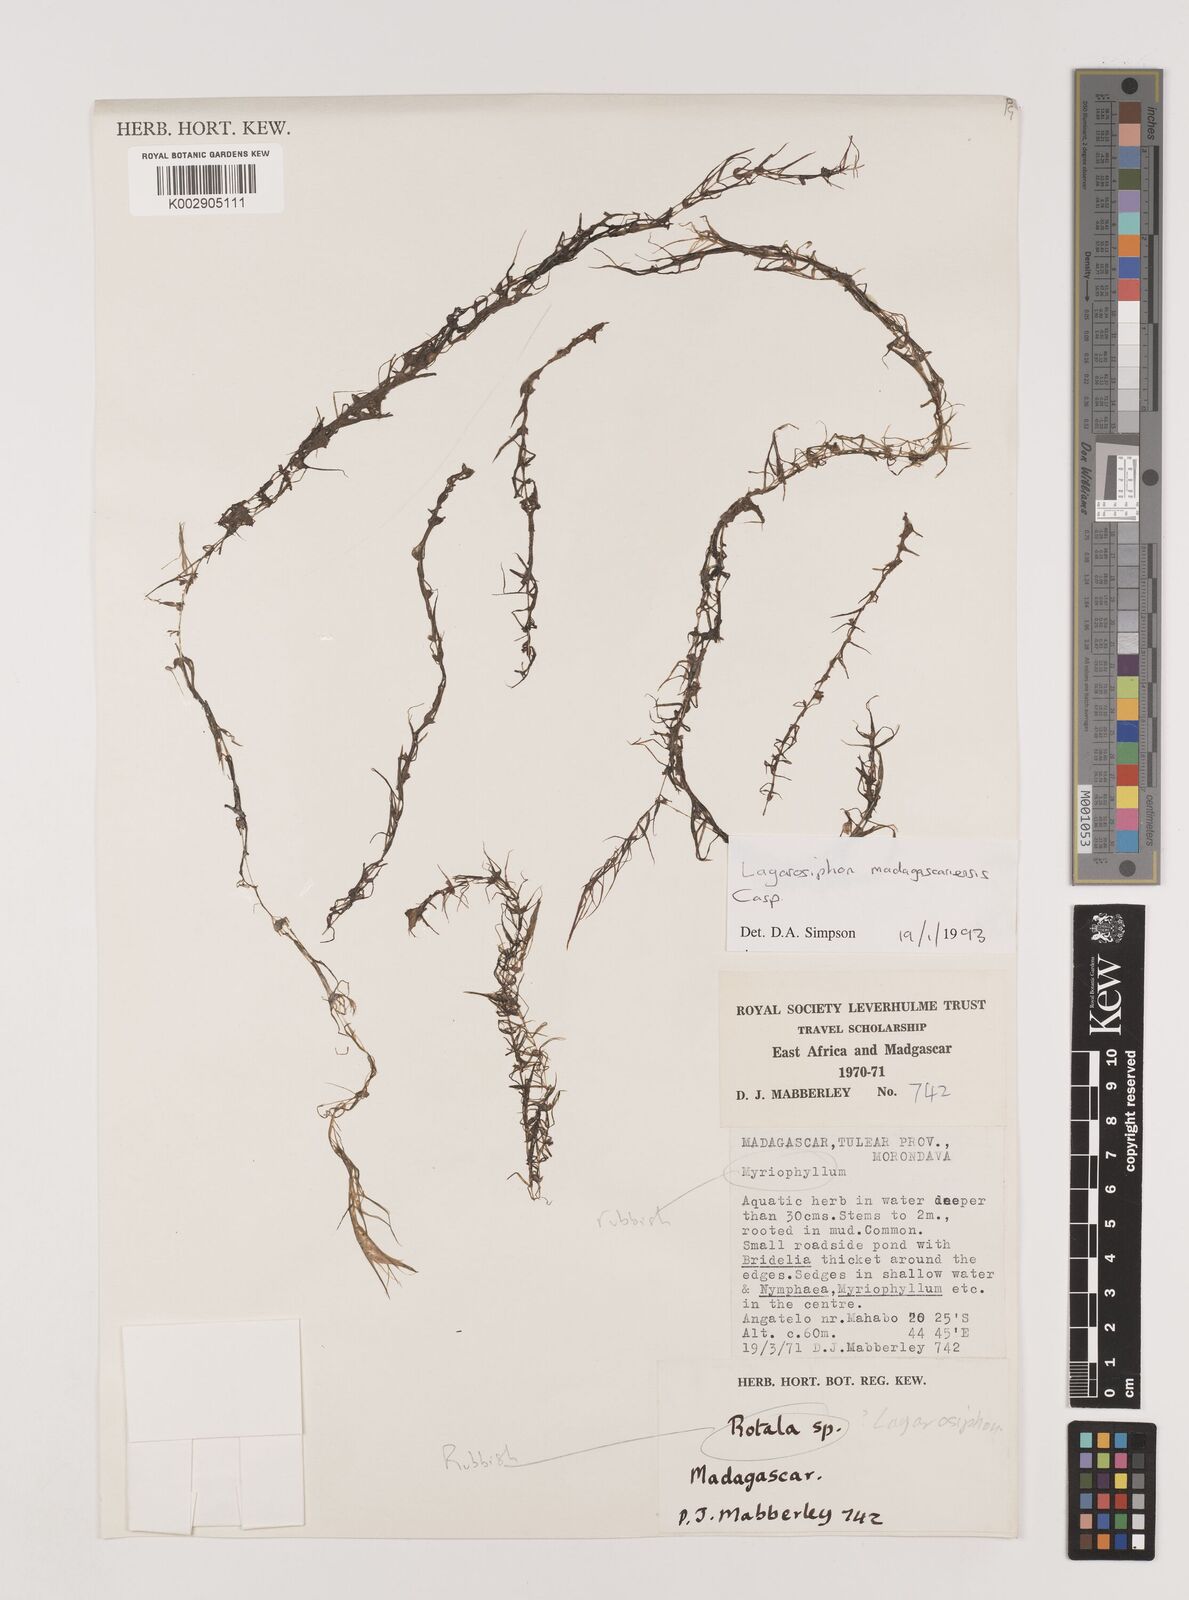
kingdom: Plantae
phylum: Tracheophyta
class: Liliopsida
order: Alismatales
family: Hydrocharitaceae
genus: Lagarosiphon
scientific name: Lagarosiphon madagascariensis
